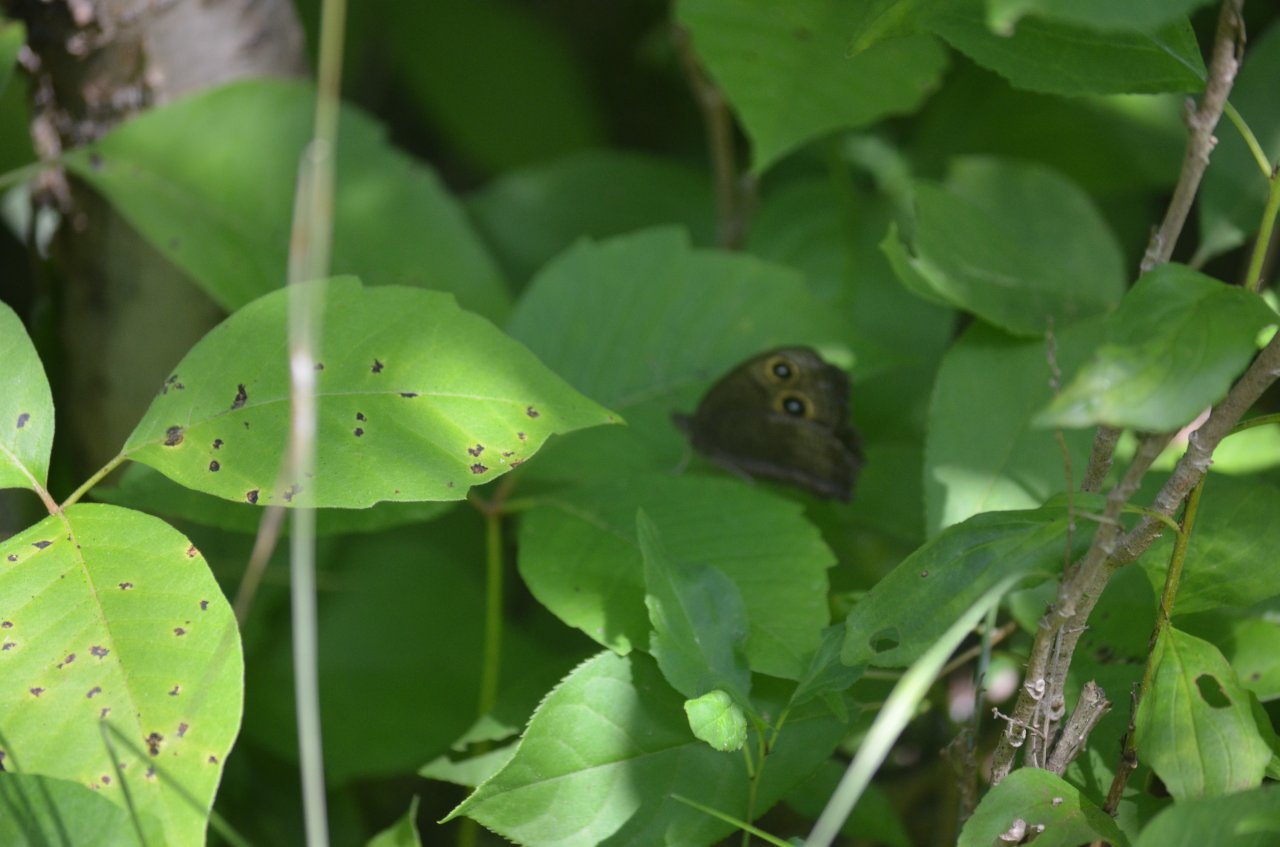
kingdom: Animalia
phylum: Arthropoda
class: Insecta
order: Lepidoptera
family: Nymphalidae
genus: Cercyonis
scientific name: Cercyonis pegala
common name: Common Wood-Nymph
